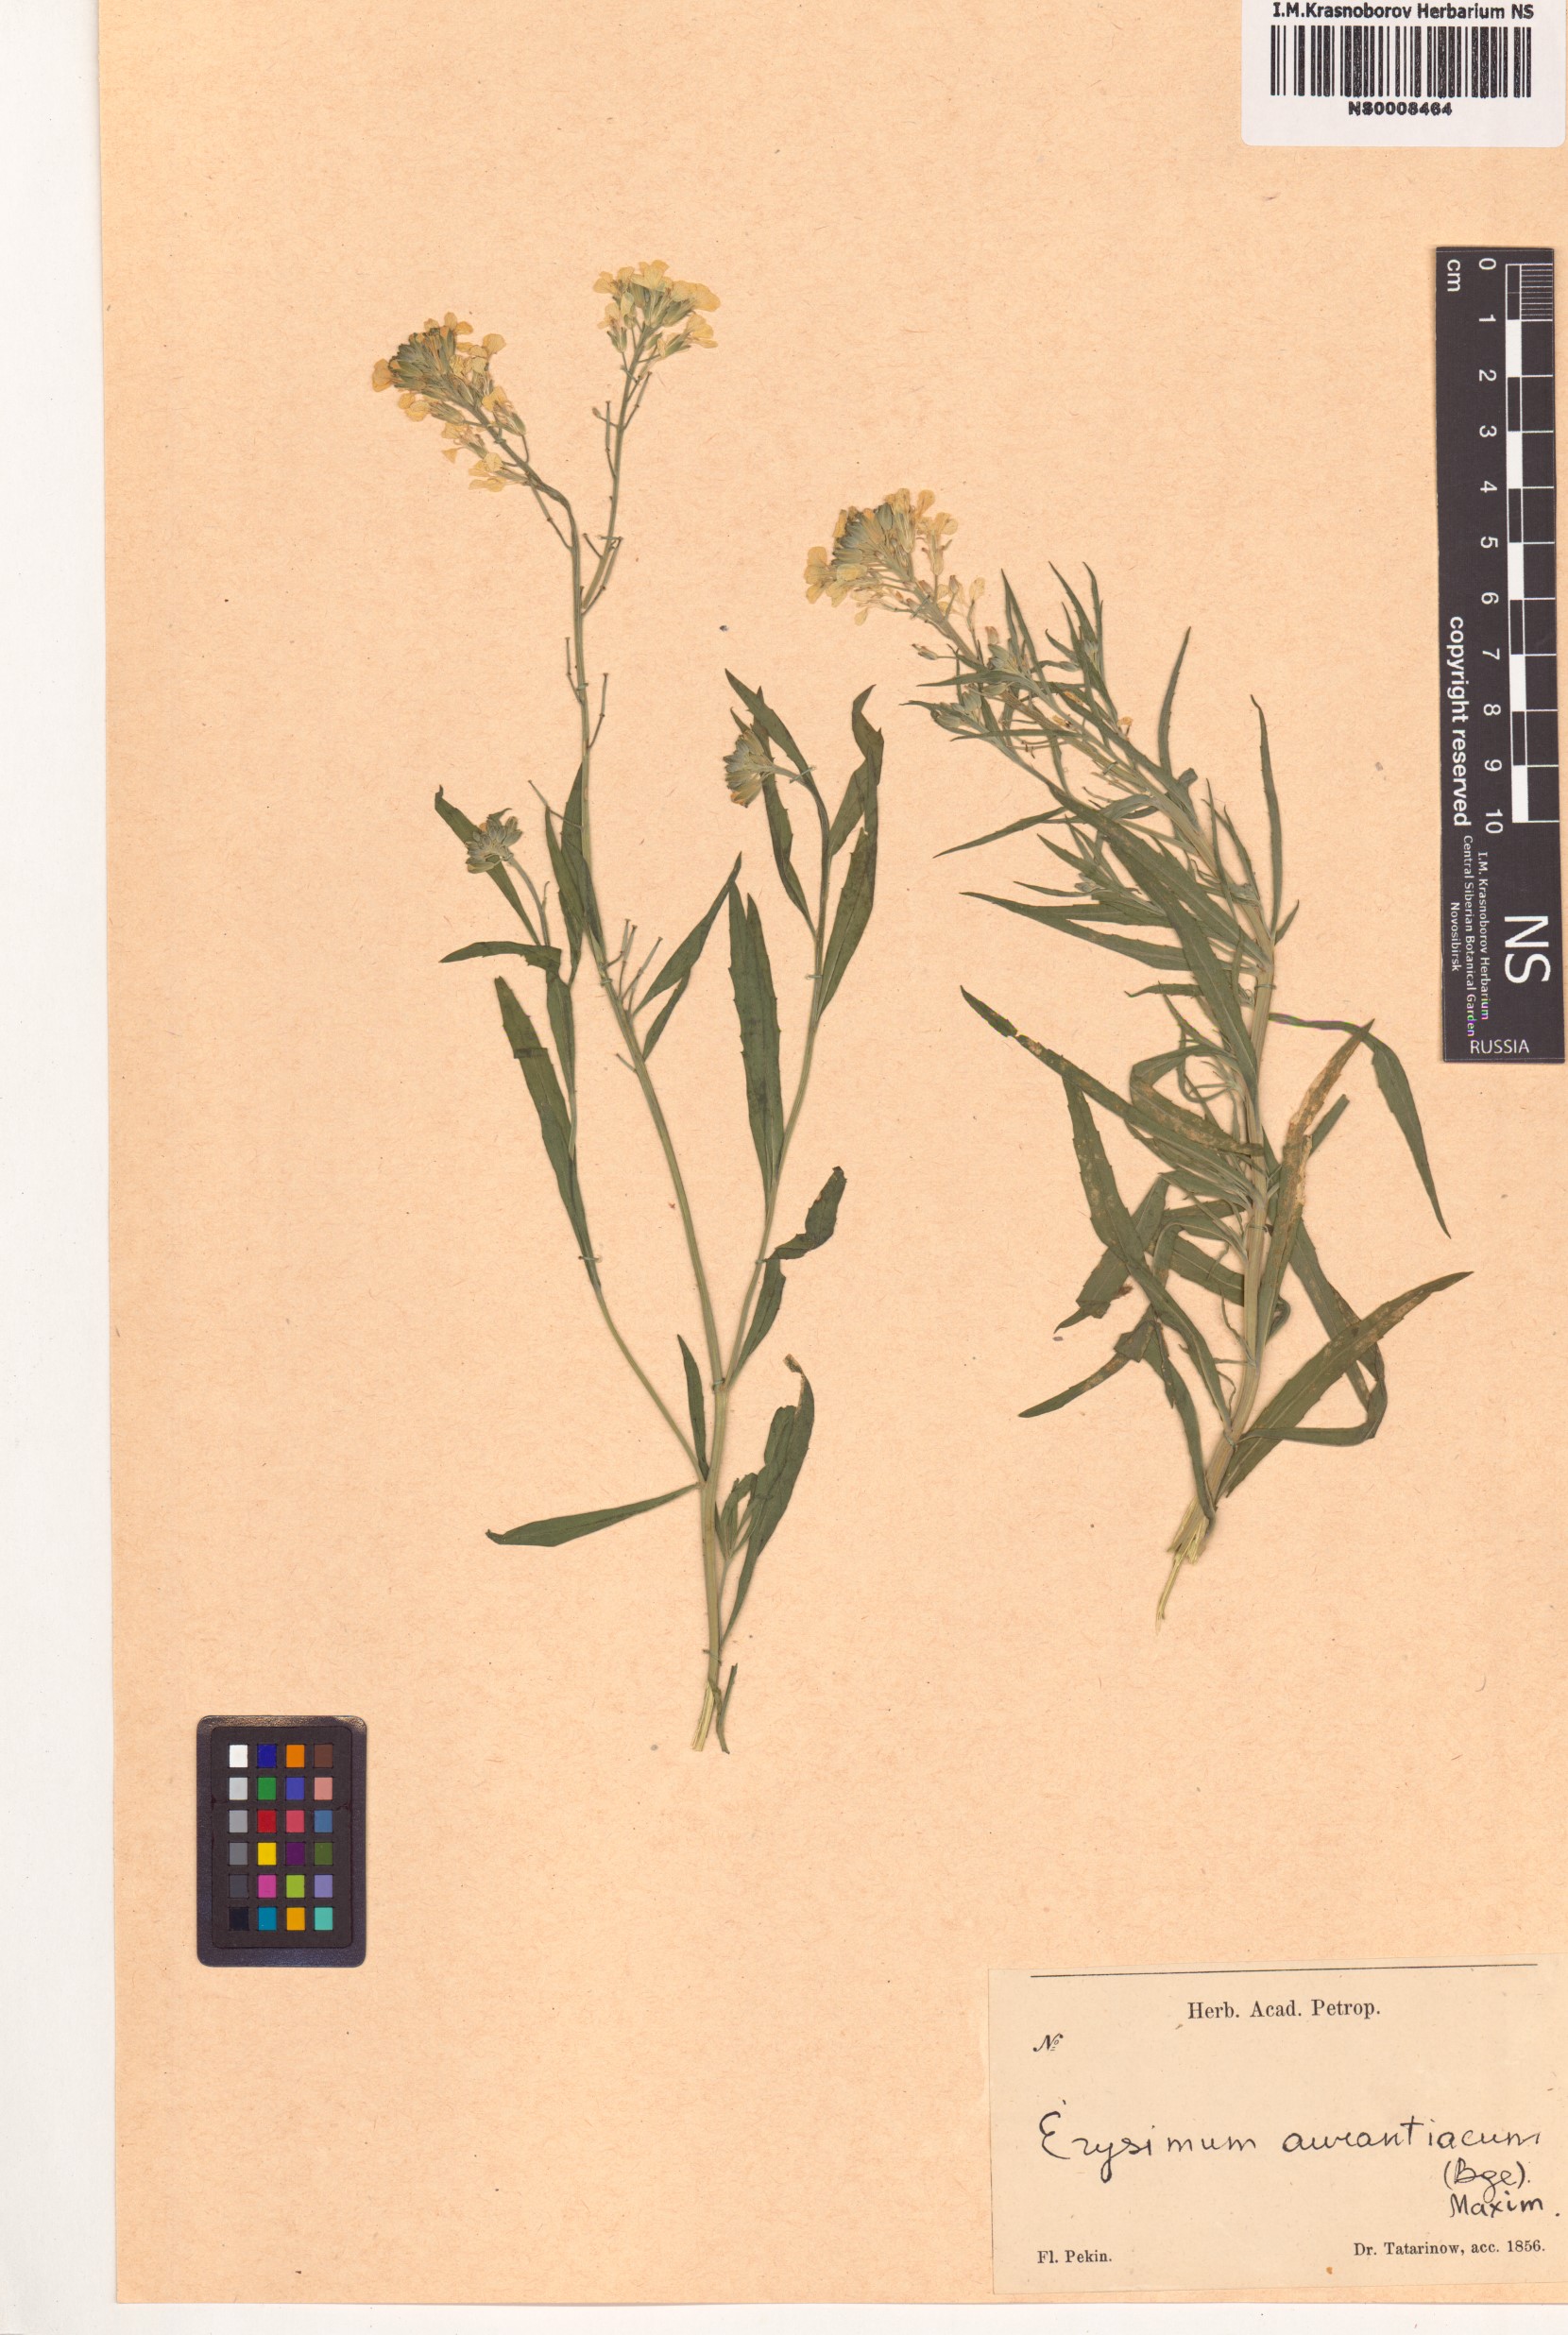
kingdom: Plantae
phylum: Tracheophyta
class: Magnoliopsida
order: Brassicales
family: Brassicaceae
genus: Erysimum
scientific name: Erysimum amurense
